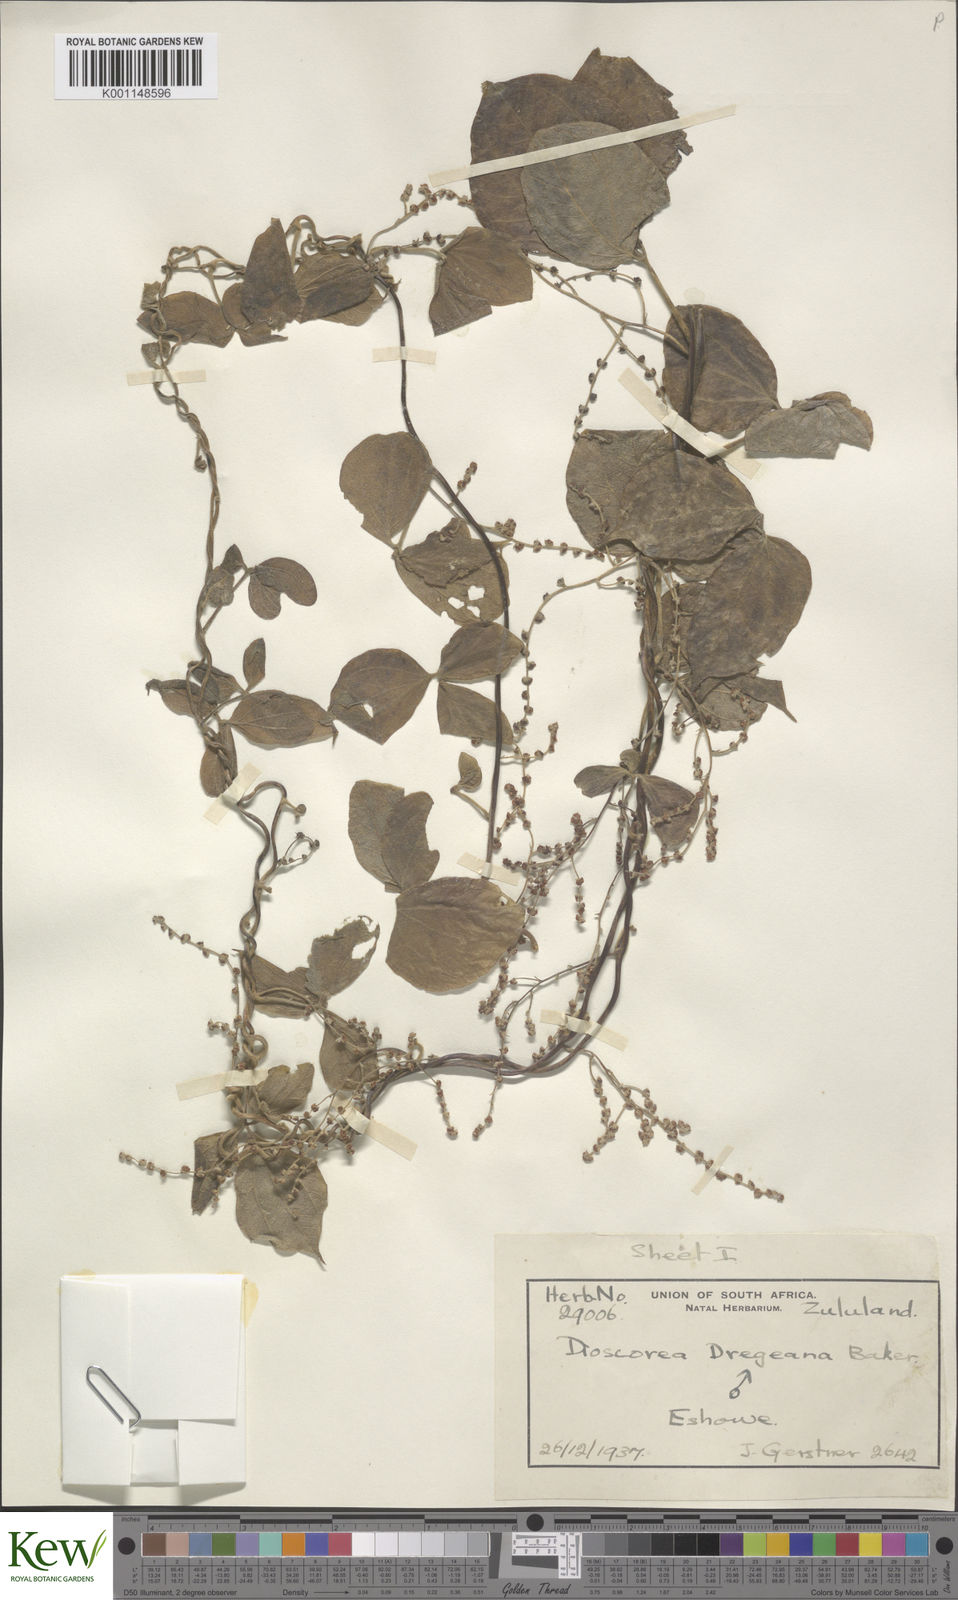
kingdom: Plantae
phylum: Tracheophyta
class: Liliopsida
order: Dioscoreales
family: Dioscoreaceae
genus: Dioscorea
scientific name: Dioscorea dregeana
